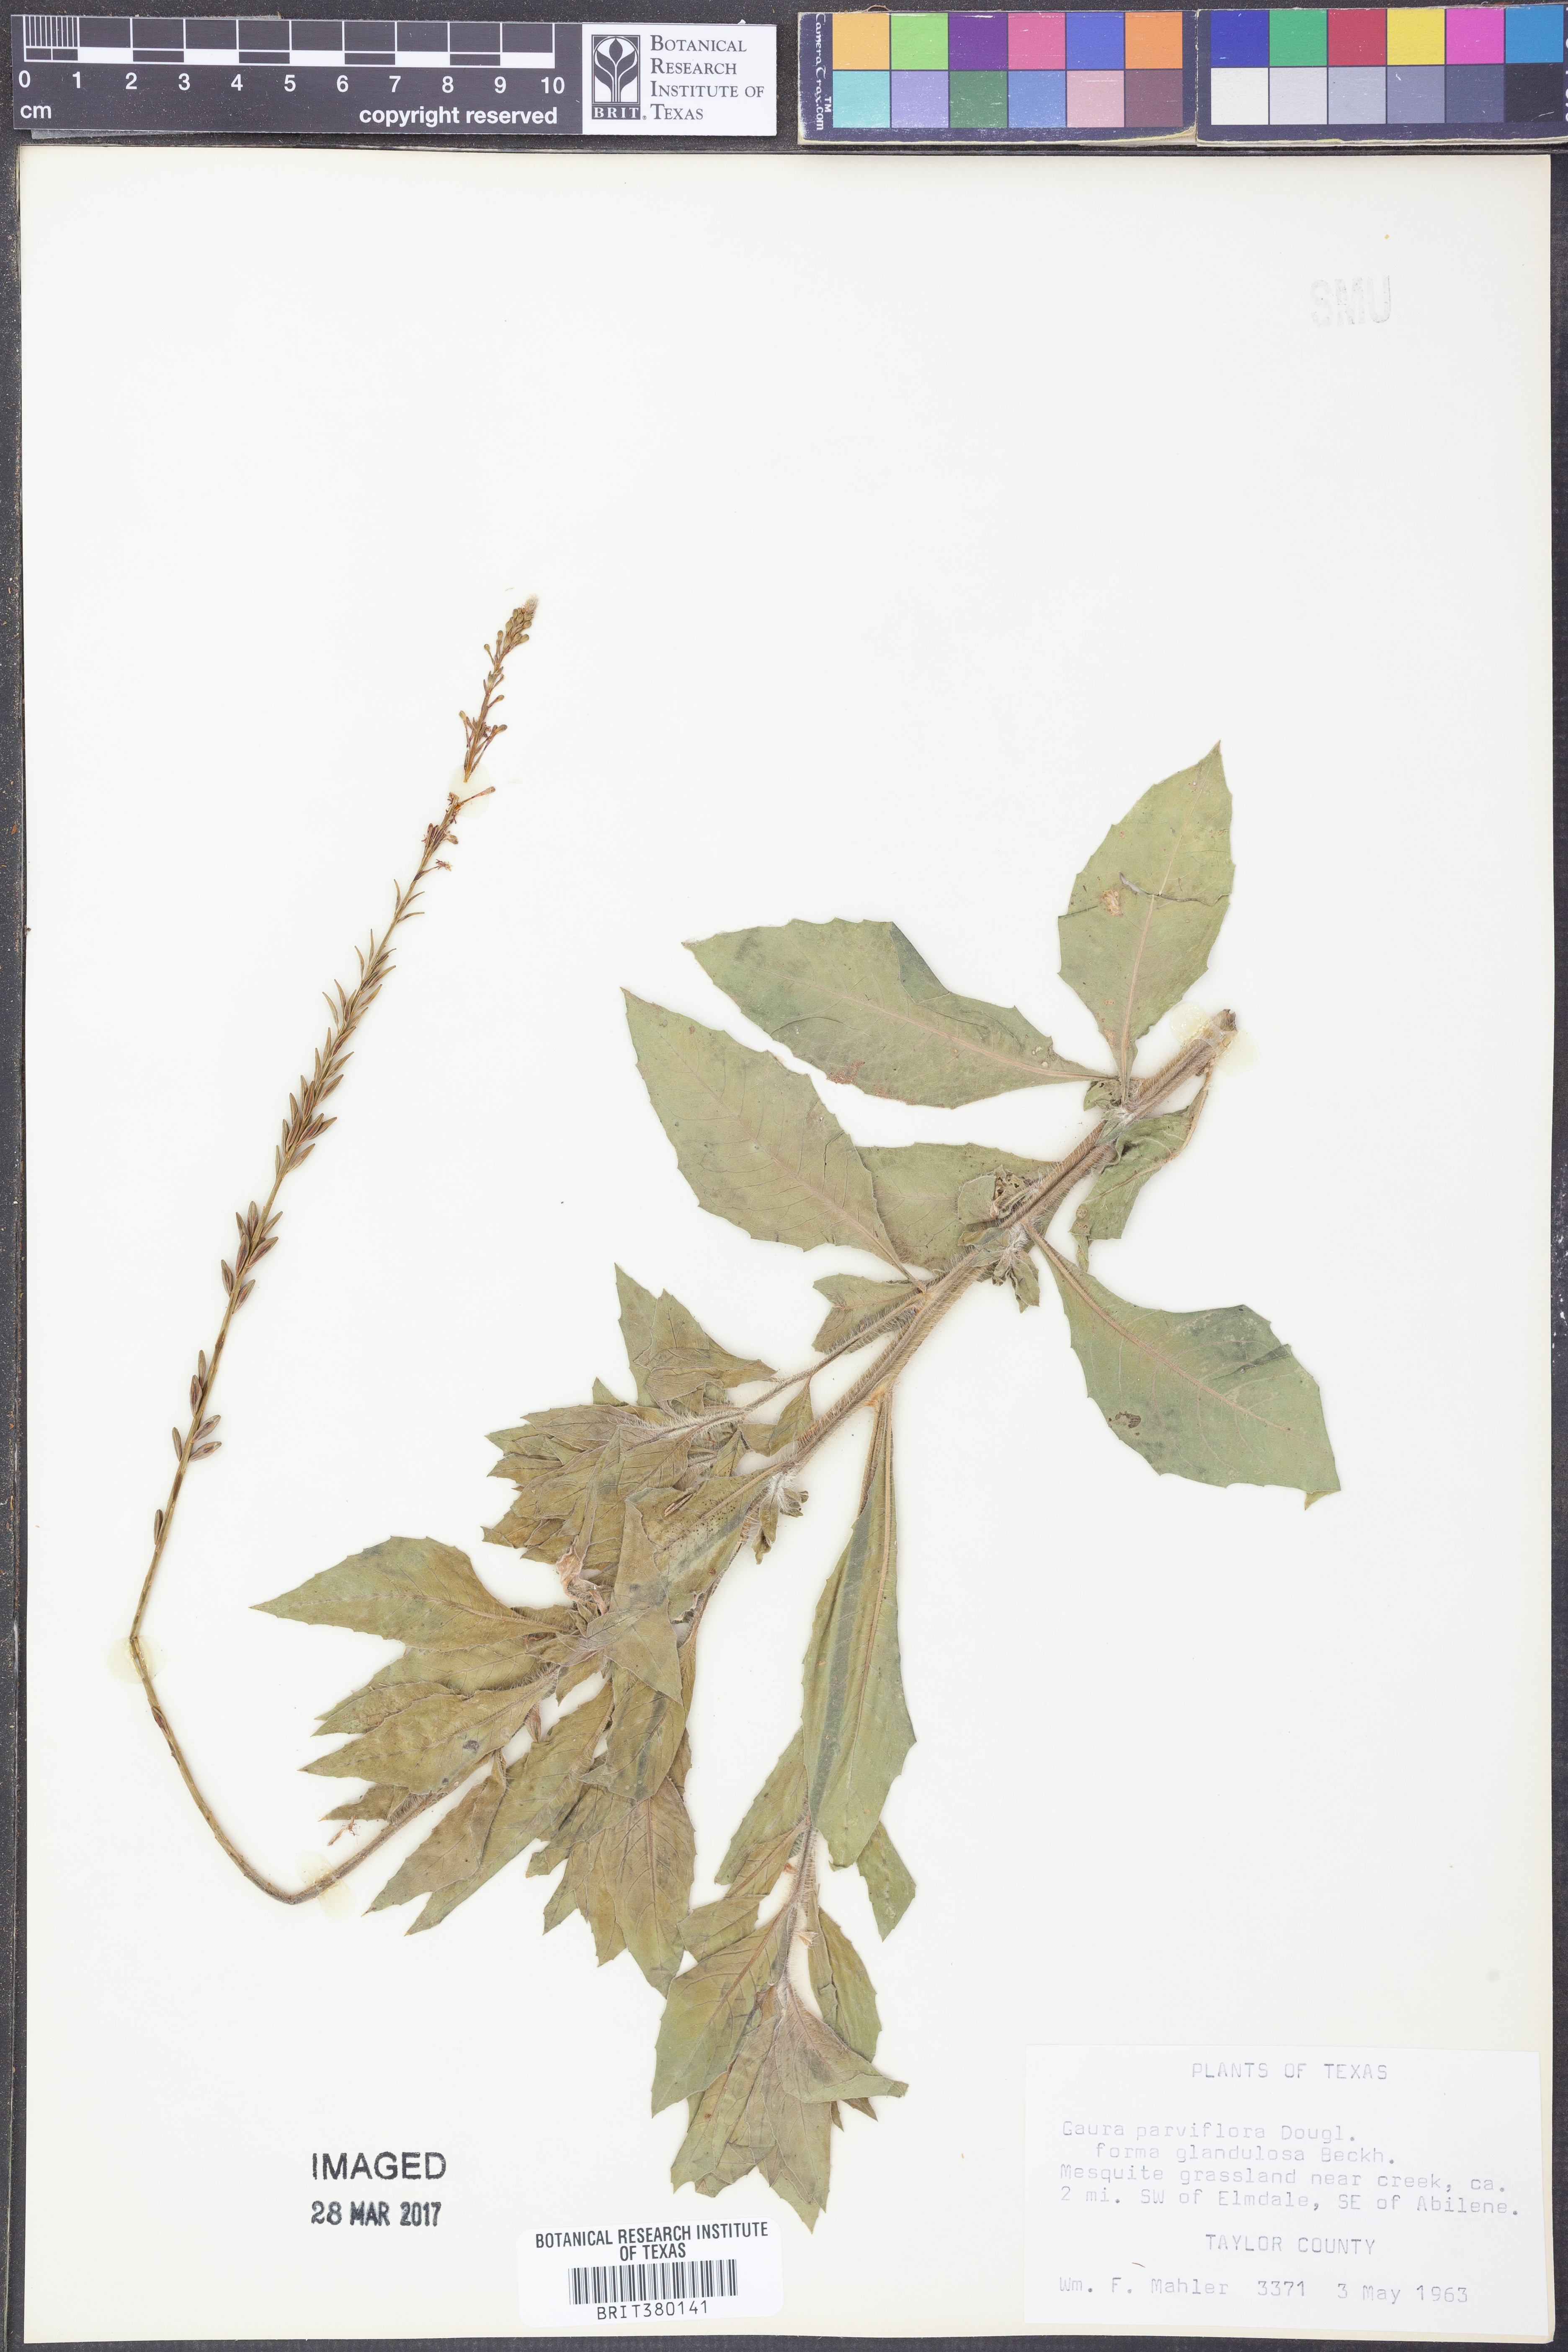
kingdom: Plantae
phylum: Tracheophyta
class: Magnoliopsida
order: Myrtales
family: Onagraceae
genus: Oenothera
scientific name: Oenothera curtiflora
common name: Velvetweed
